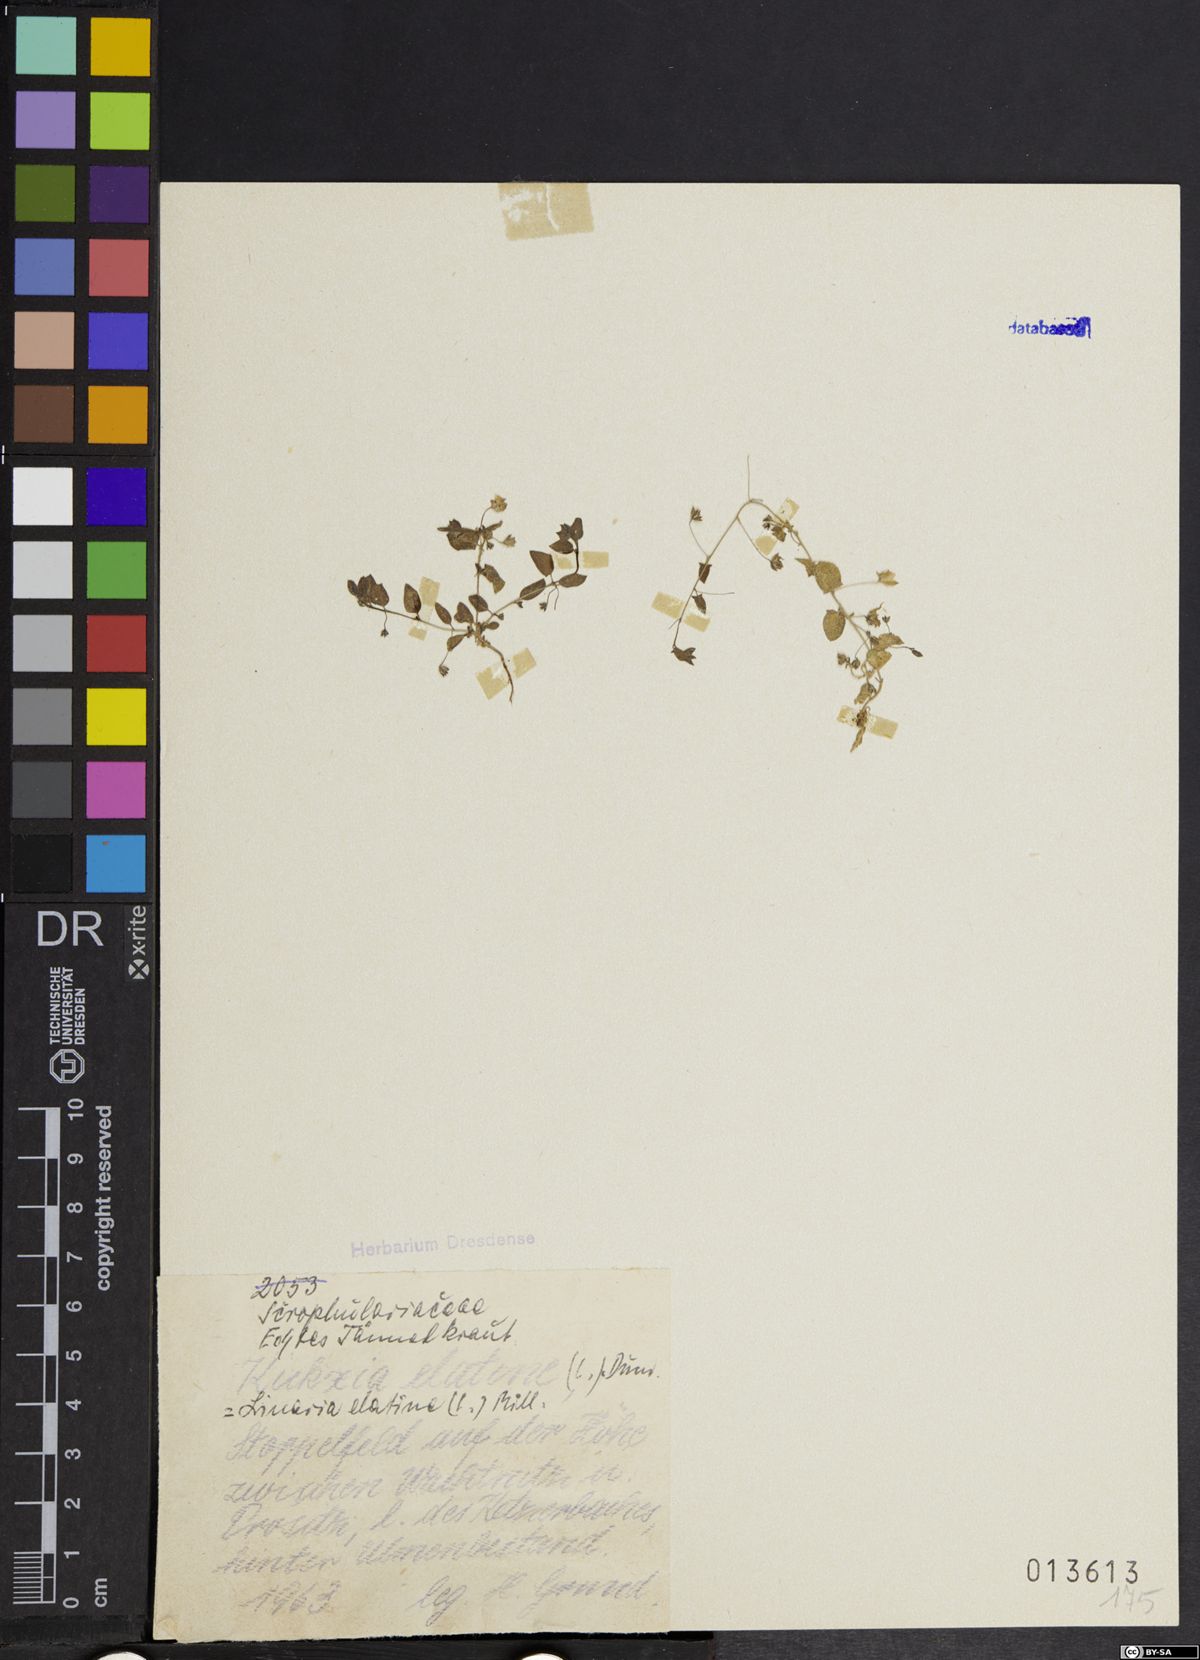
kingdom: Plantae
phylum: Tracheophyta
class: Magnoliopsida
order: Lamiales
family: Plantaginaceae
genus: Kickxia
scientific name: Kickxia elatine
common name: Sharp-leaved fluellen
